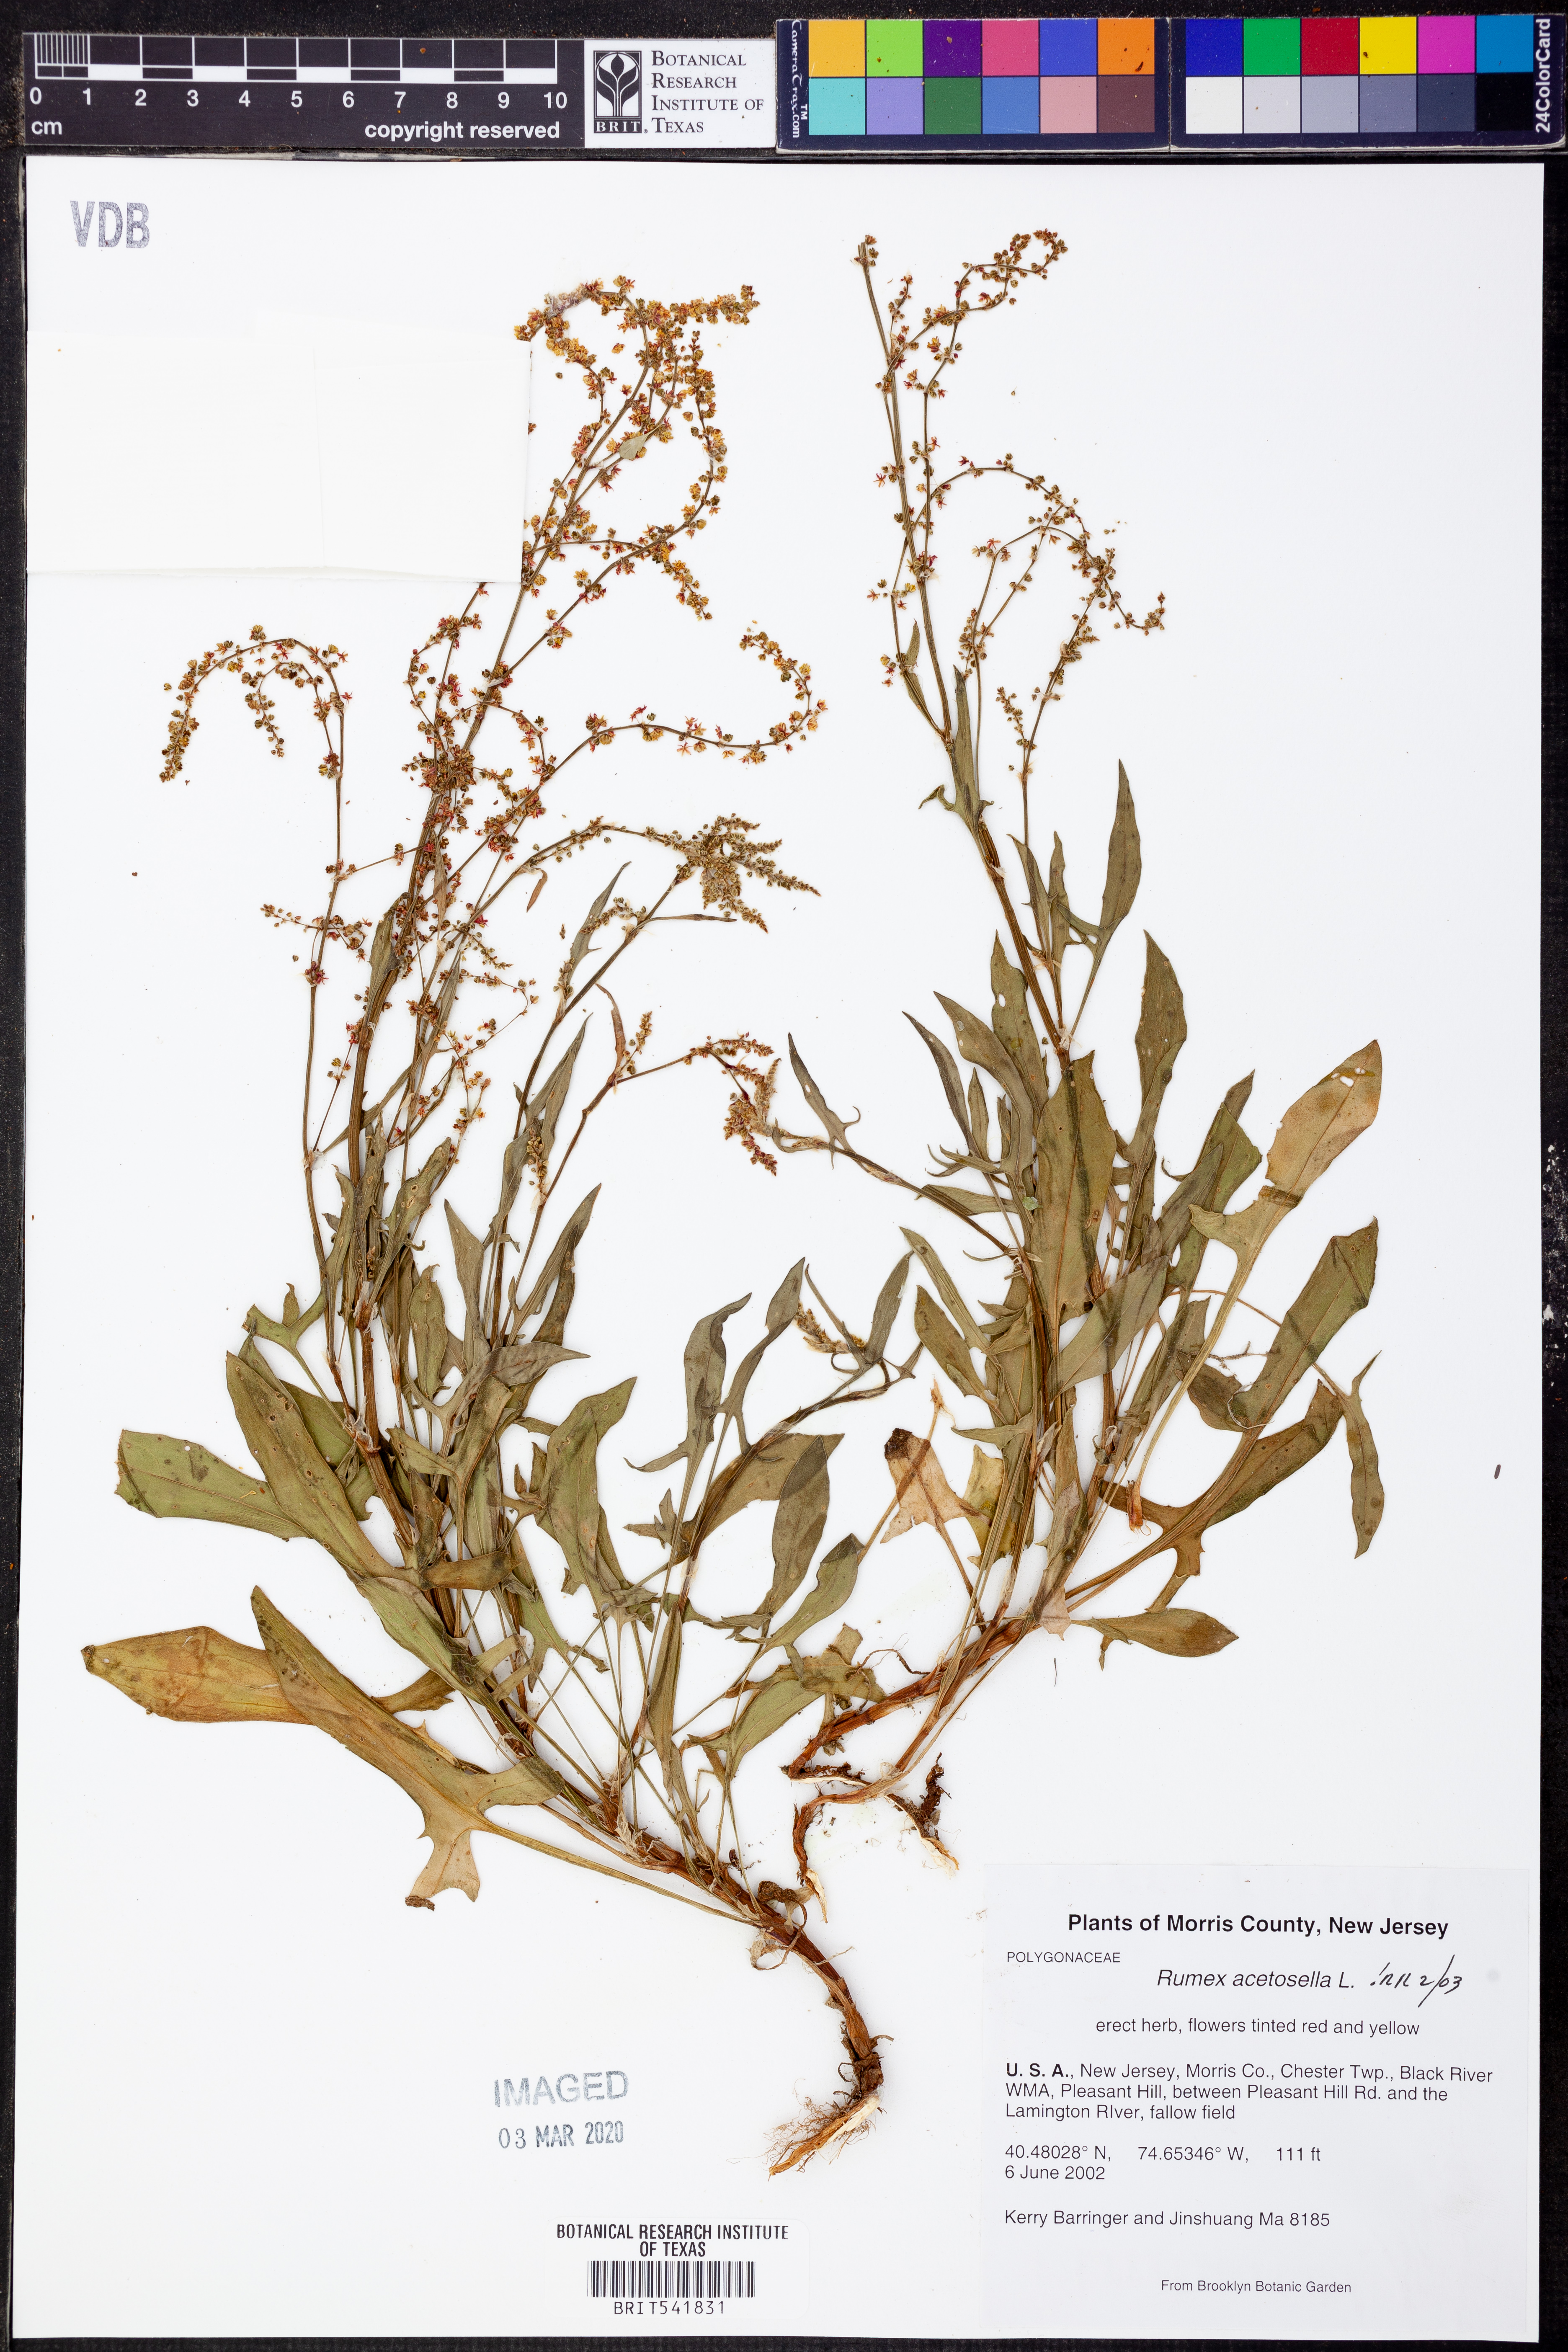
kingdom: Plantae
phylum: Tracheophyta
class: Magnoliopsida
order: Caryophyllales
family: Polygonaceae
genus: Rumex
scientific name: Rumex acetosella
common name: Common sheep sorrel
